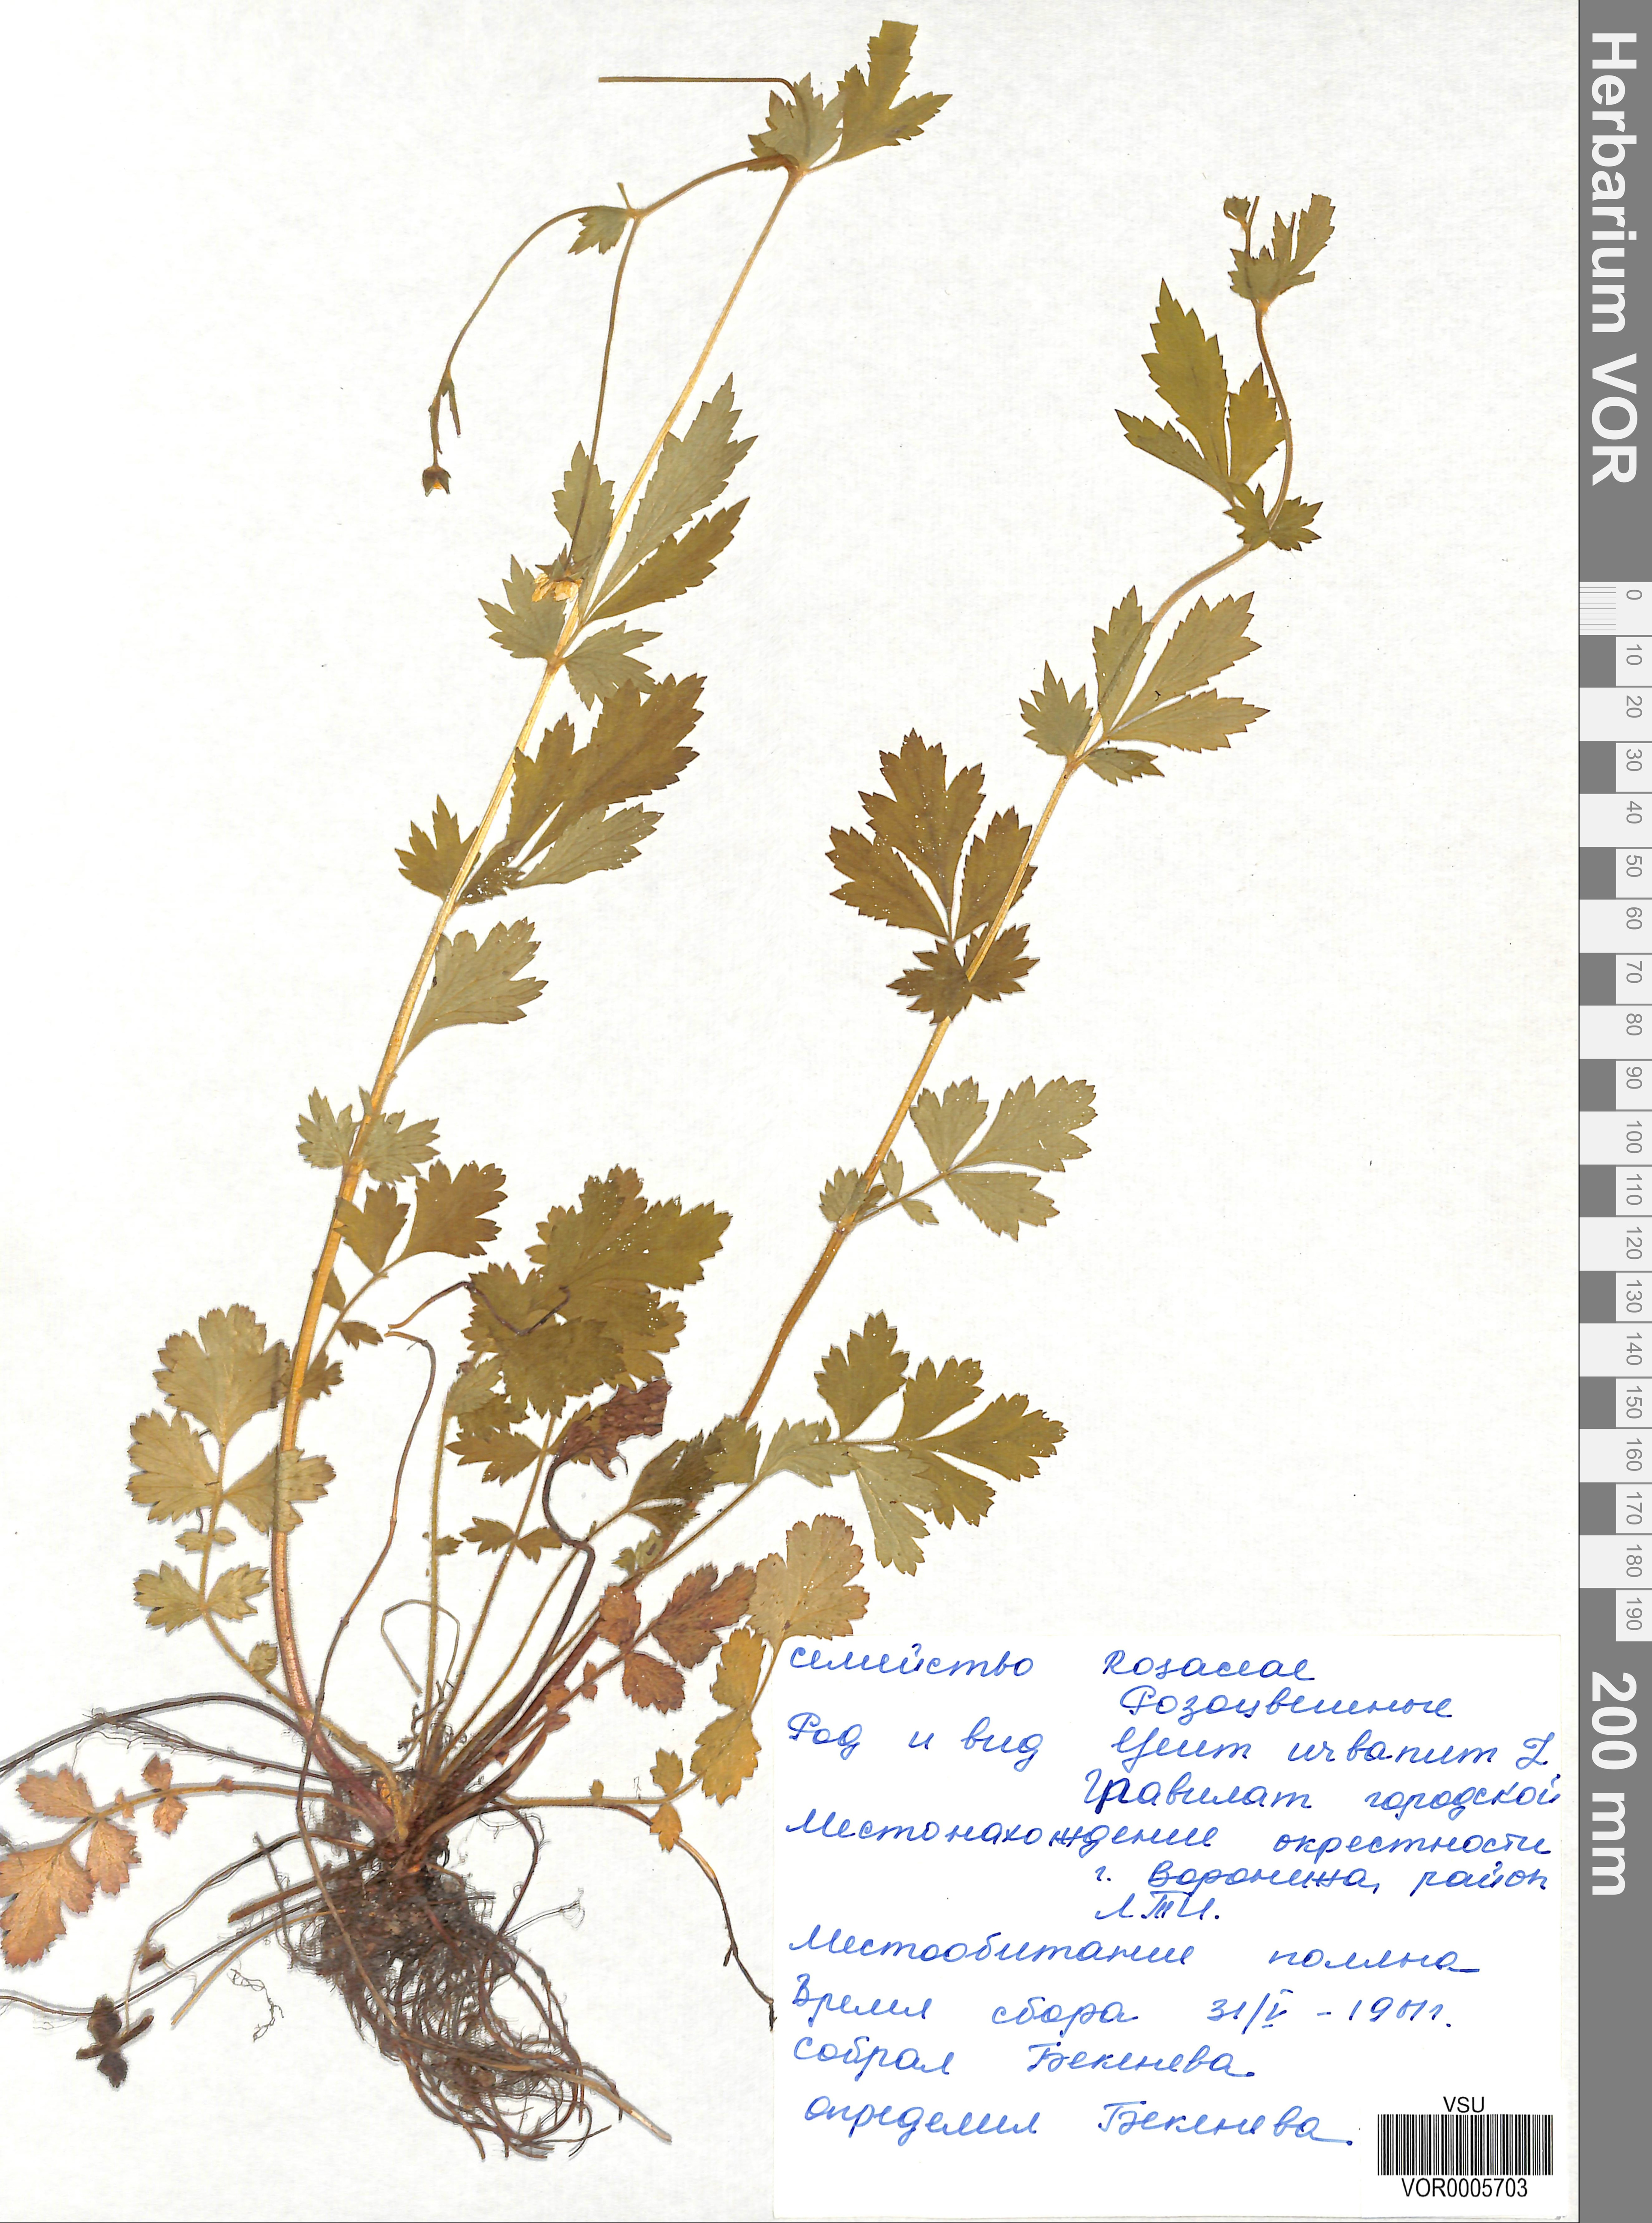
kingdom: Plantae
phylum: Tracheophyta
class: Magnoliopsida
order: Rosales
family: Rosaceae
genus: Geum
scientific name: Geum urbanum
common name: Wood avens
